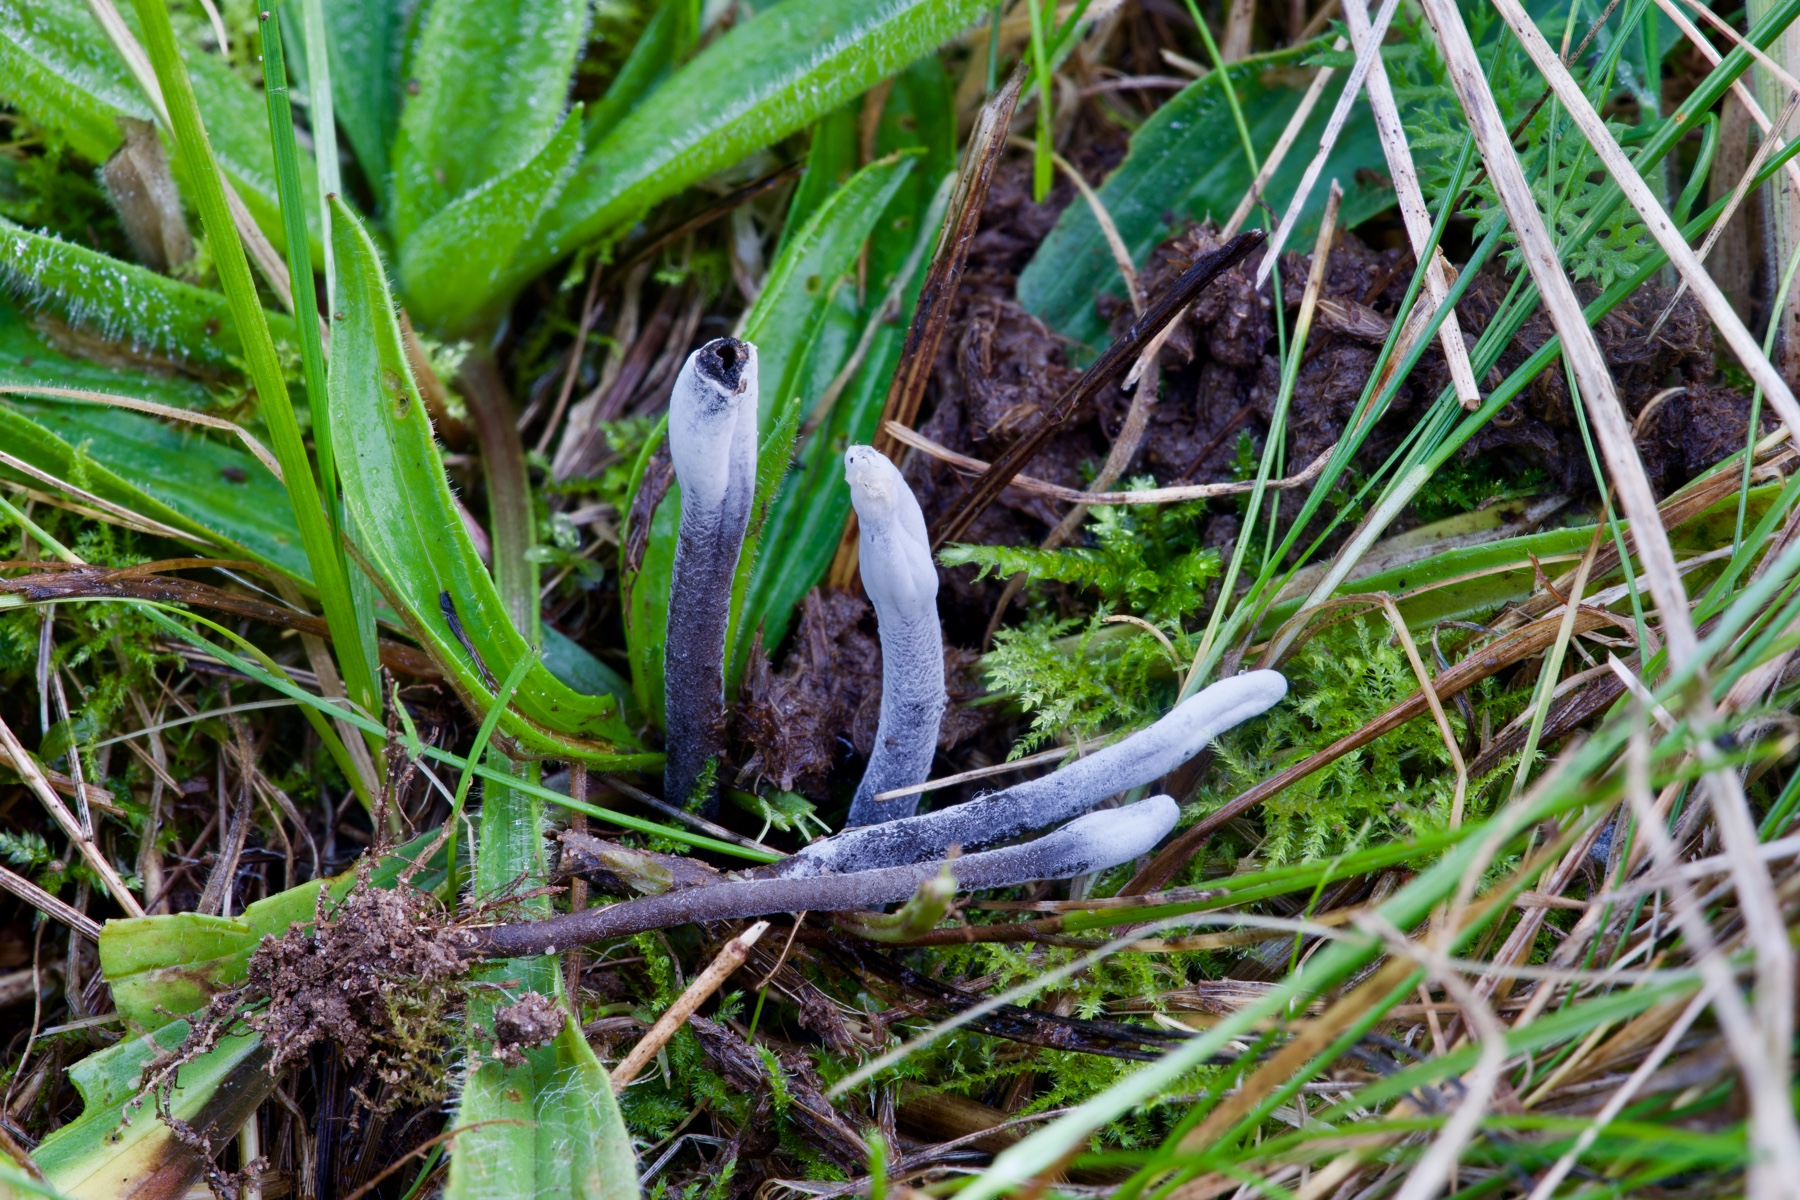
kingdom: Fungi
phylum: Ascomycota
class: Sordariomycetes
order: Hypocreales
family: Hypocreaceae
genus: Hypomyces
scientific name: Hypomyces papulasporae
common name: jordtunge-snylteskorpe
